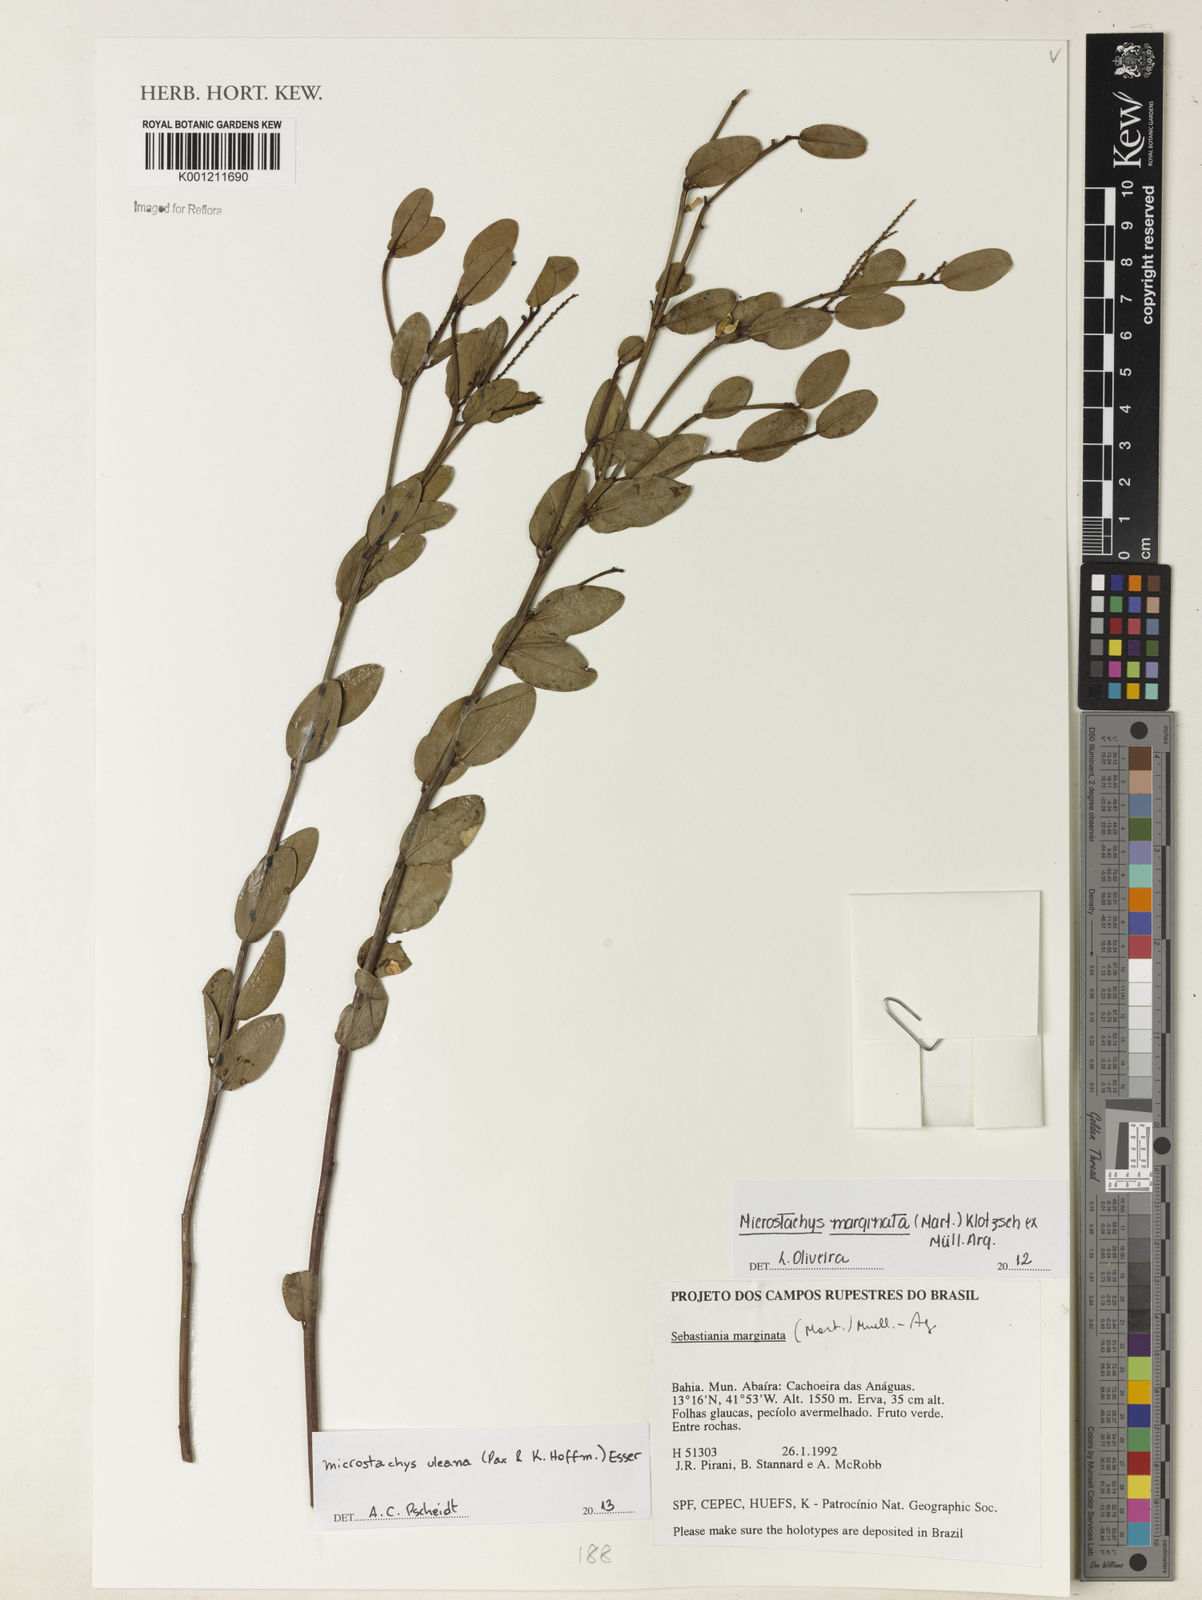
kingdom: Plantae
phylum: Tracheophyta
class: Magnoliopsida
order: Malpighiales
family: Euphorbiaceae
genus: Microstachys
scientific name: Microstachys uleana
